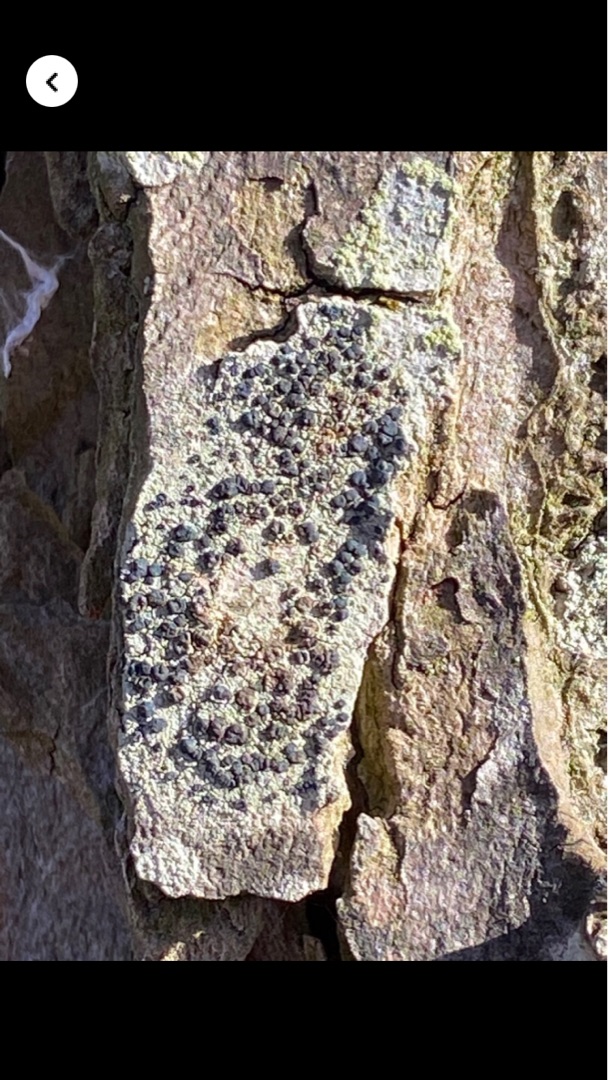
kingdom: Fungi
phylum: Ascomycota
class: Lecanoromycetes
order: Lecanorales
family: Lecanoraceae
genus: Lecidella
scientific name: Lecidella elaeochroma
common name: Grågrøn skivelav
